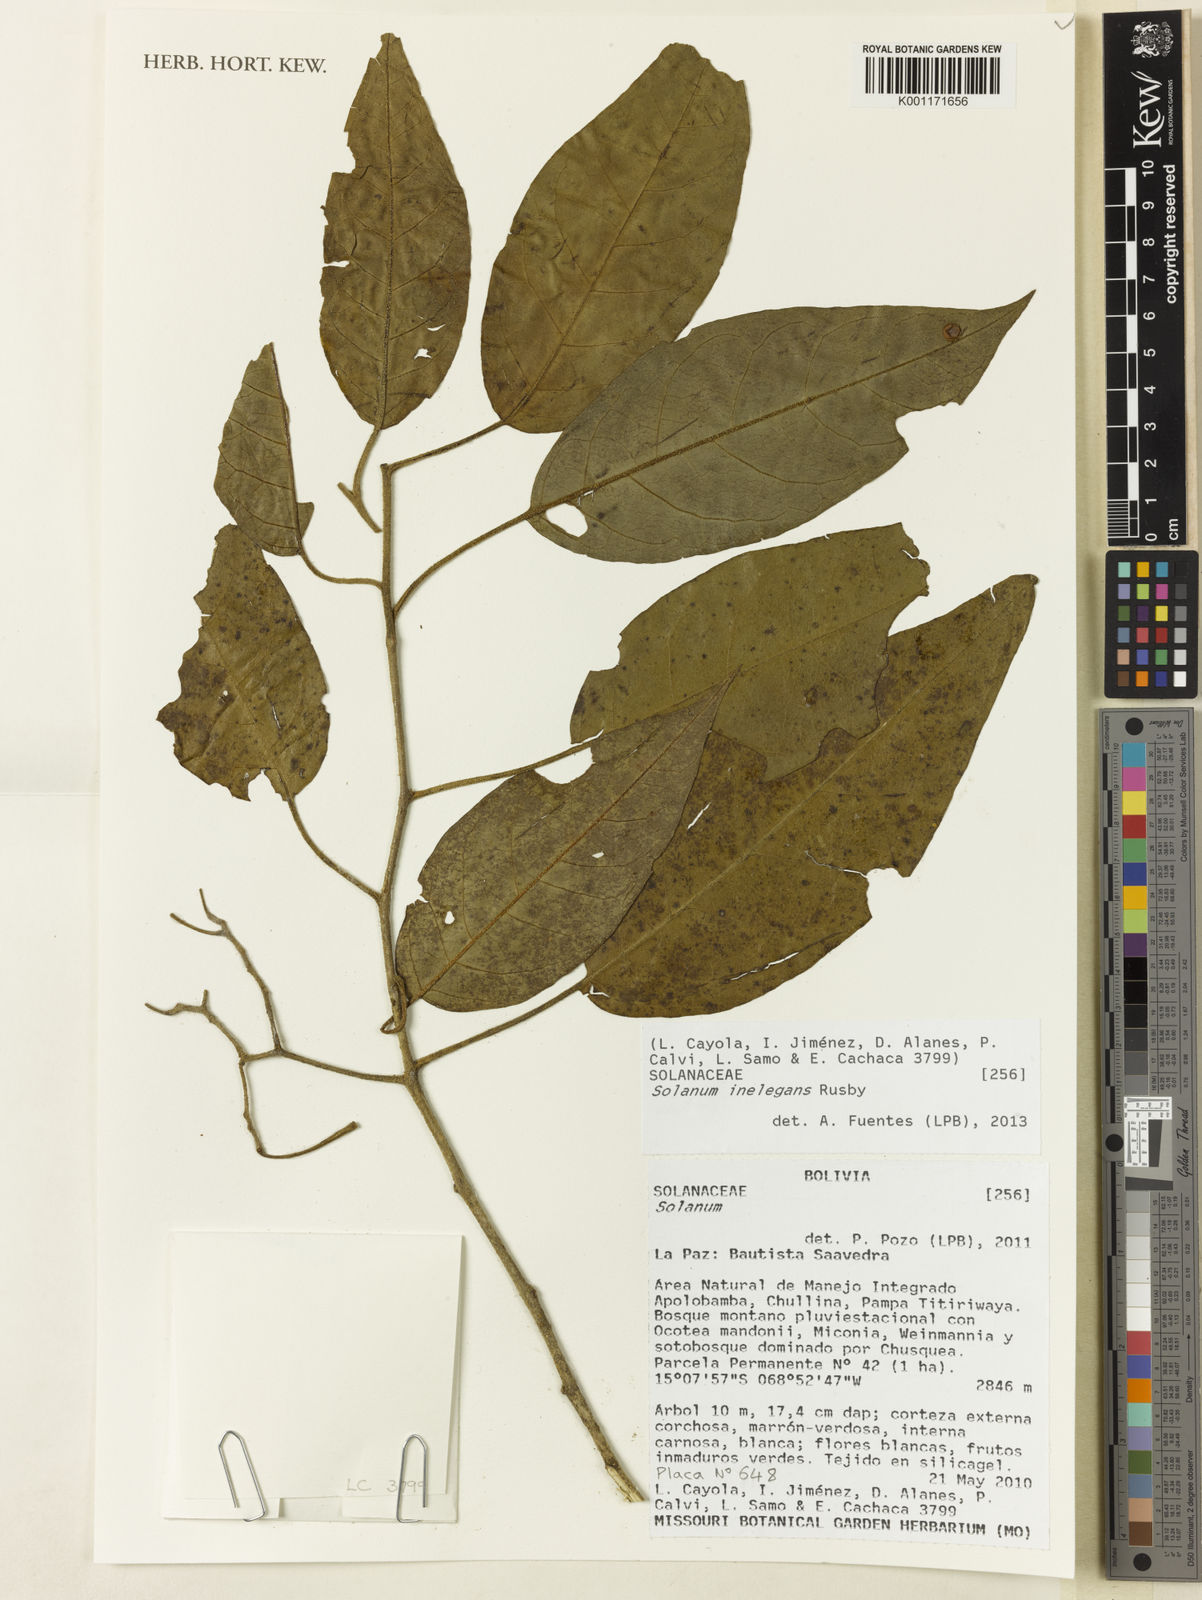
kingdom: Plantae
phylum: Tracheophyta
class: Magnoliopsida
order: Solanales
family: Solanaceae
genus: Solanum
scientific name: Solanum inelegans
